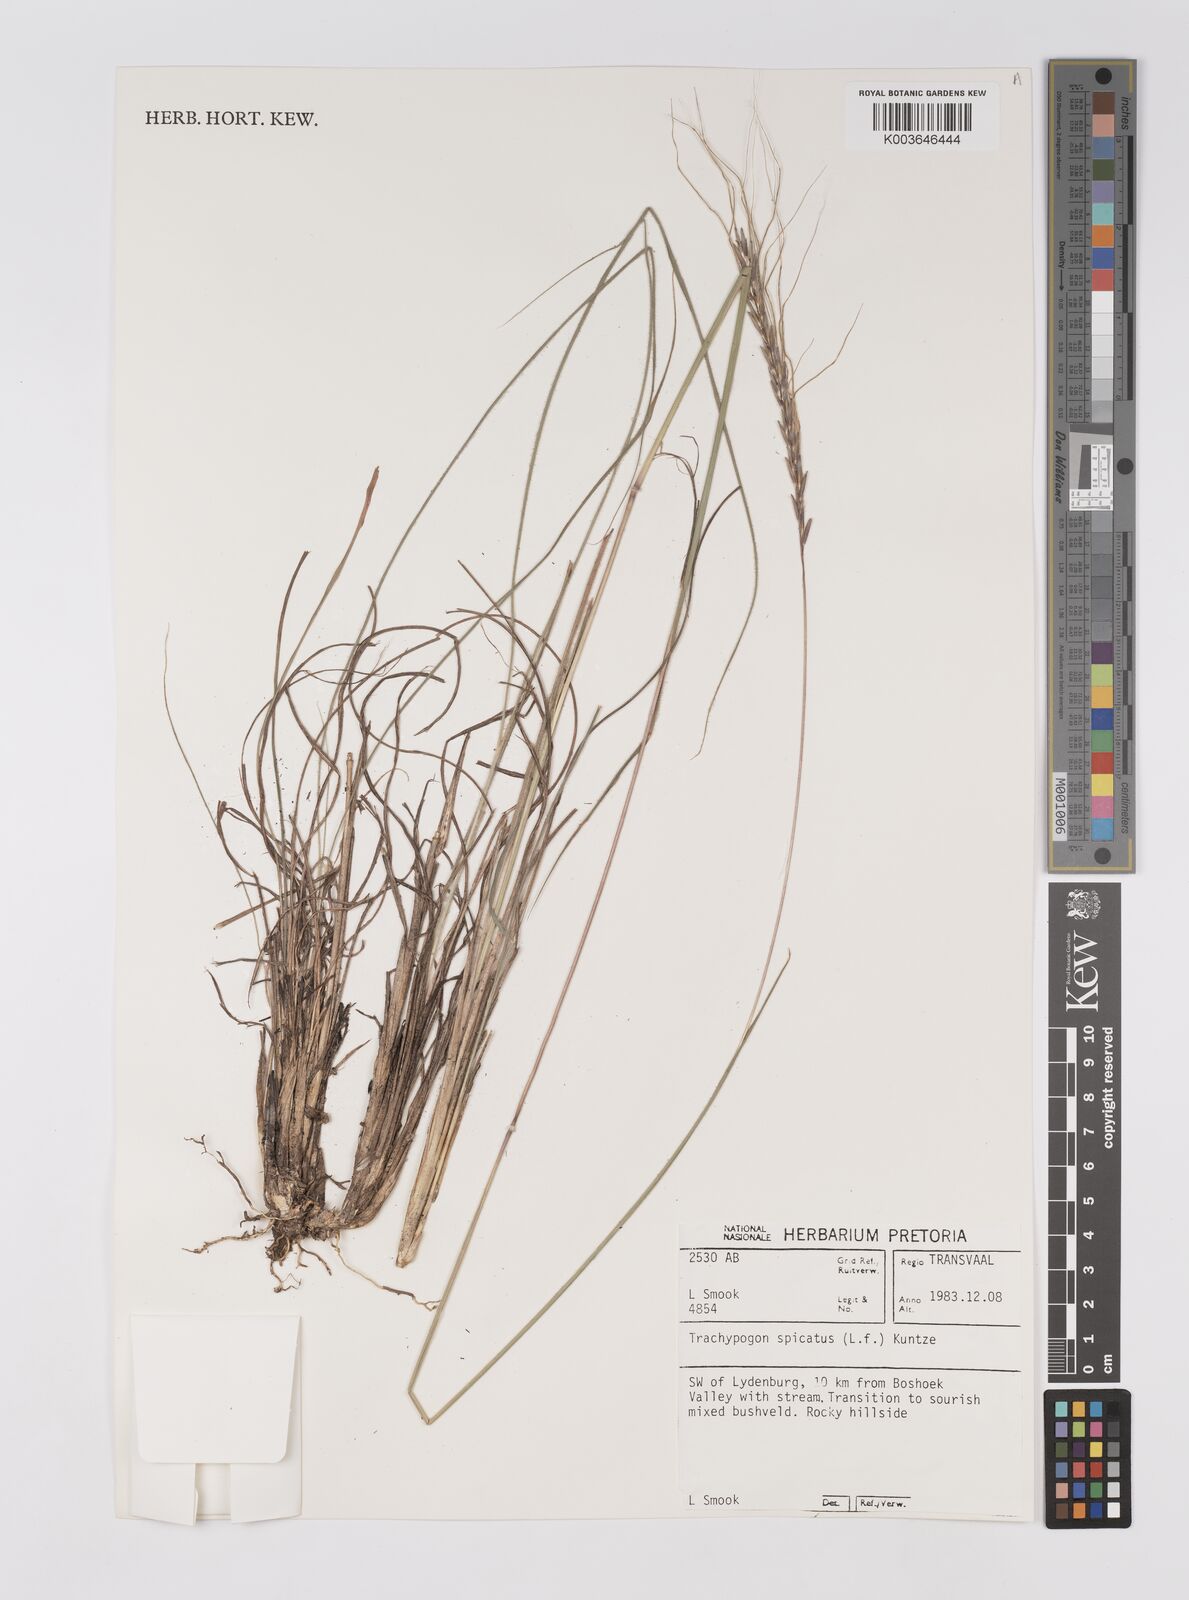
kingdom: Plantae
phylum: Tracheophyta
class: Liliopsida
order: Poales
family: Poaceae
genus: Trachypogon
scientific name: Trachypogon spicatus
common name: Crinkle-awn
